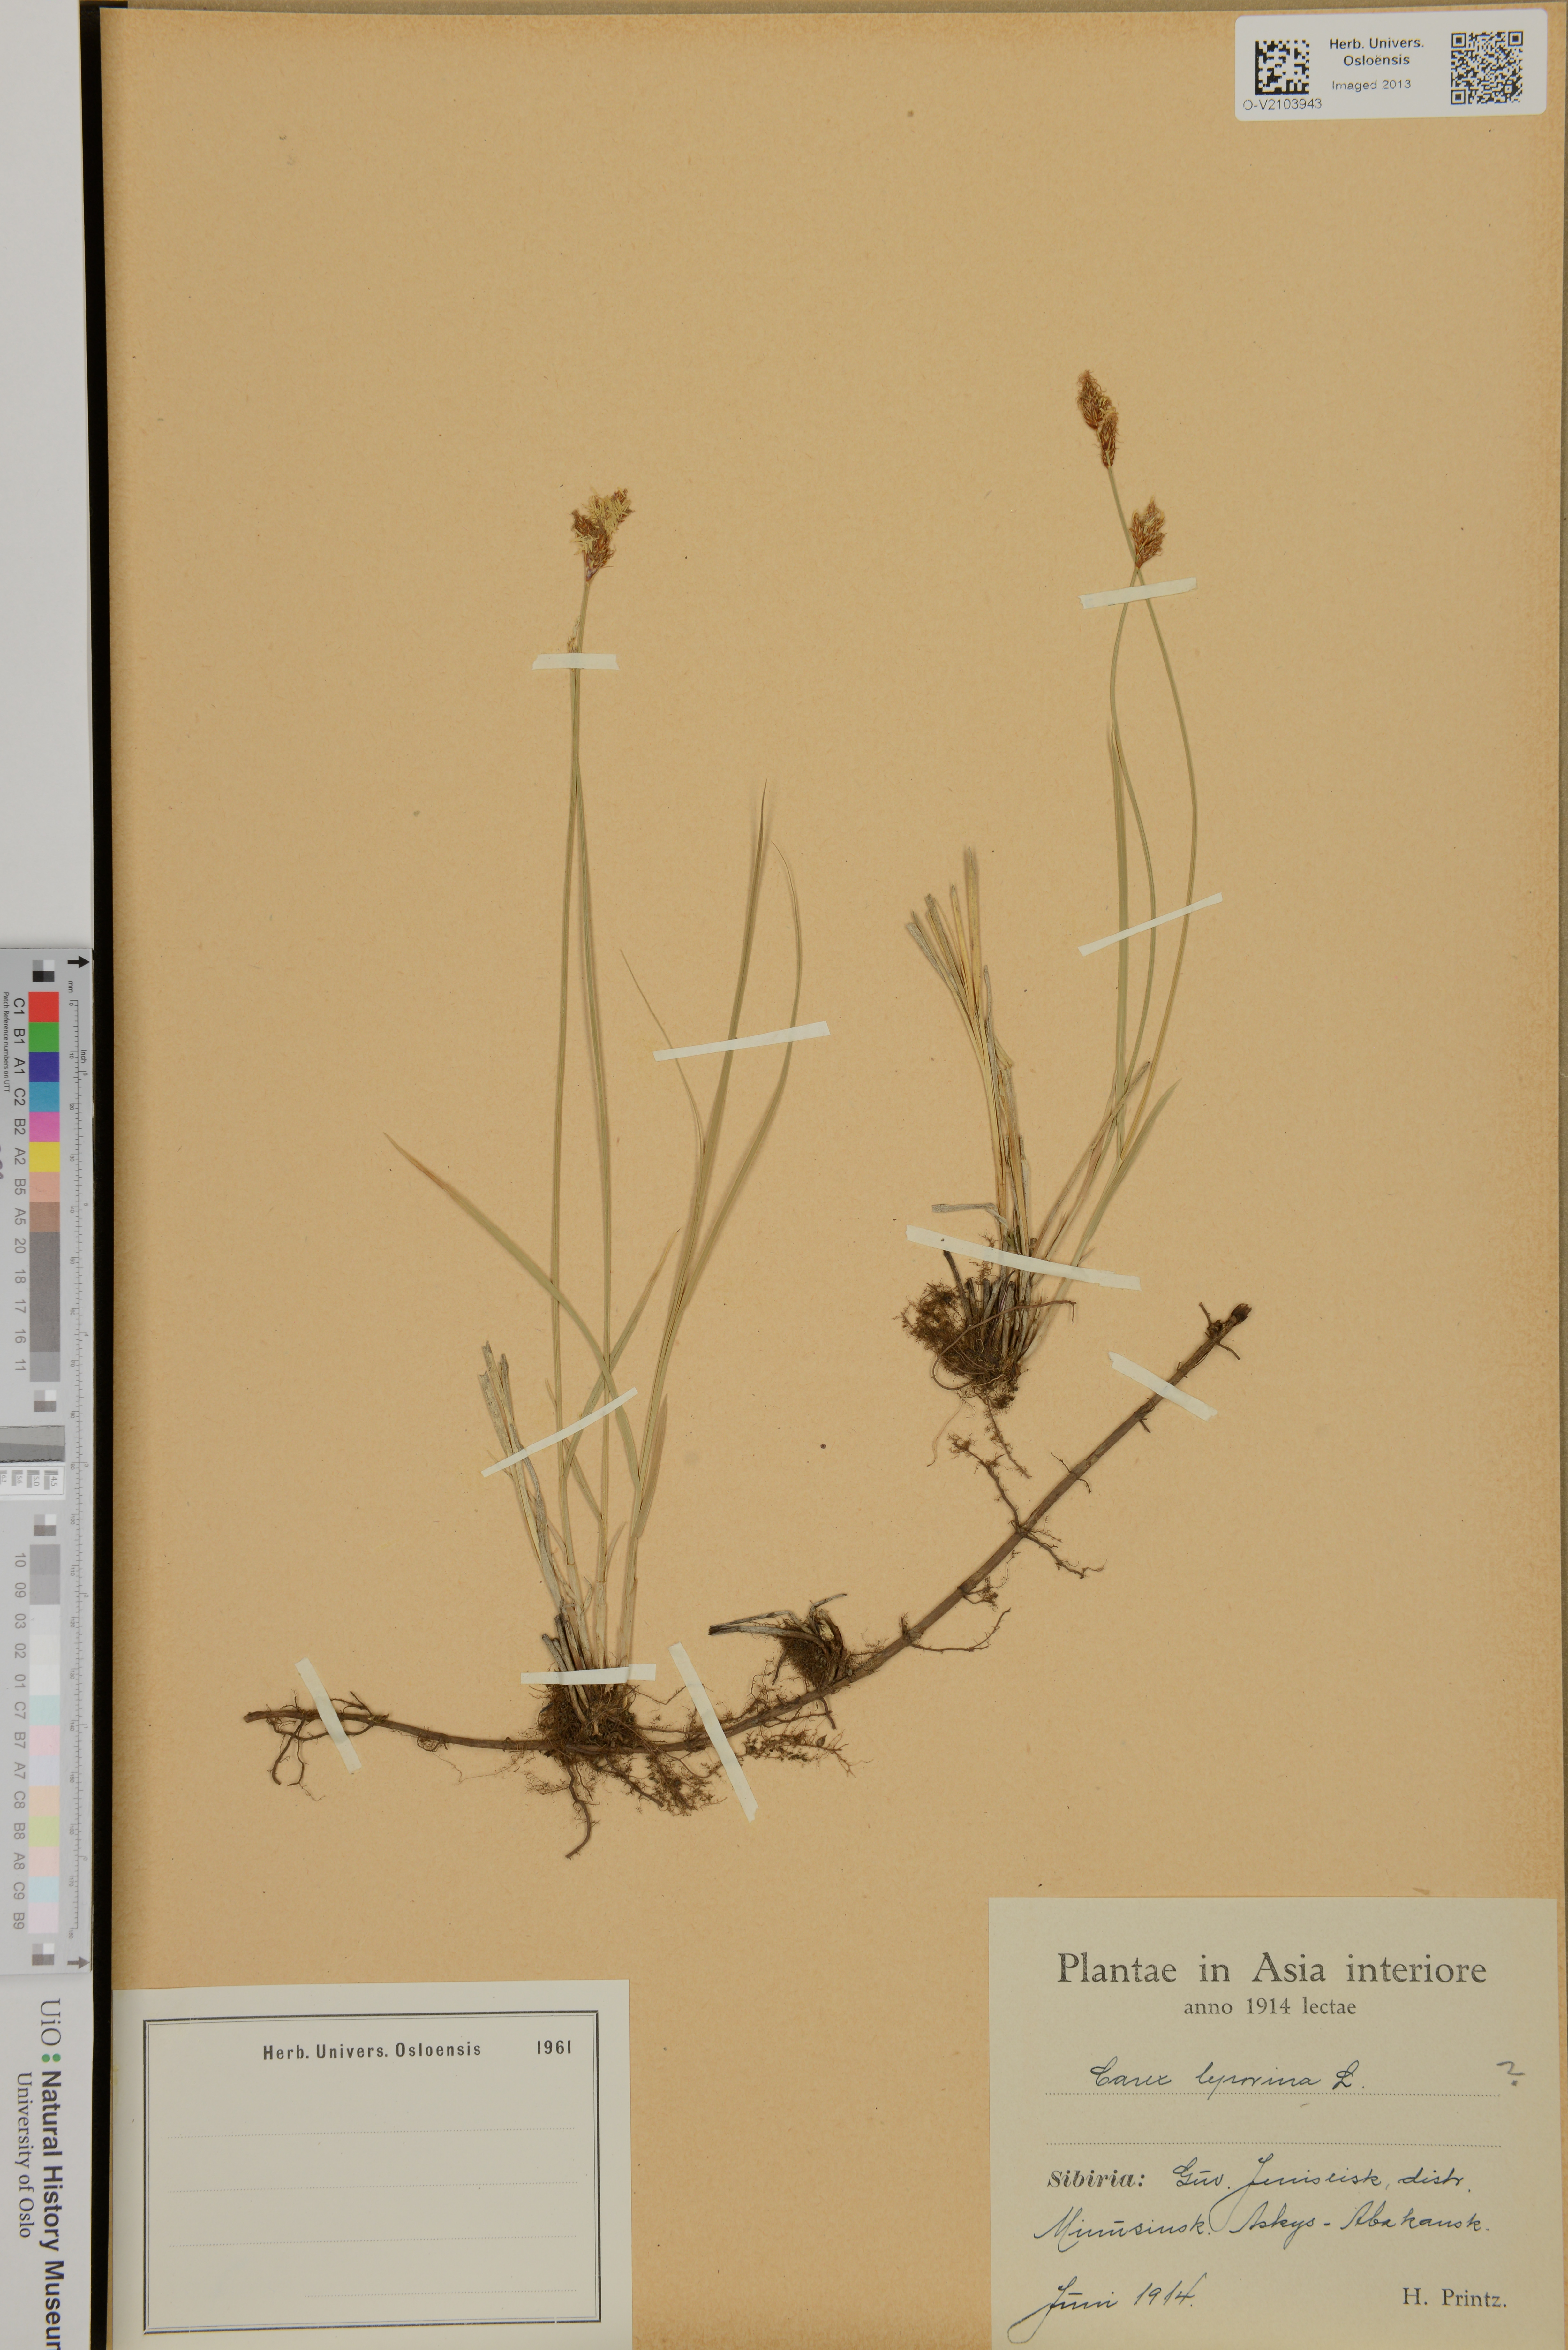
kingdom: Plantae
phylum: Tracheophyta
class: Liliopsida
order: Poales
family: Cyperaceae
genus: Carex
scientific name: Carex leporina
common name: Oval sedge
